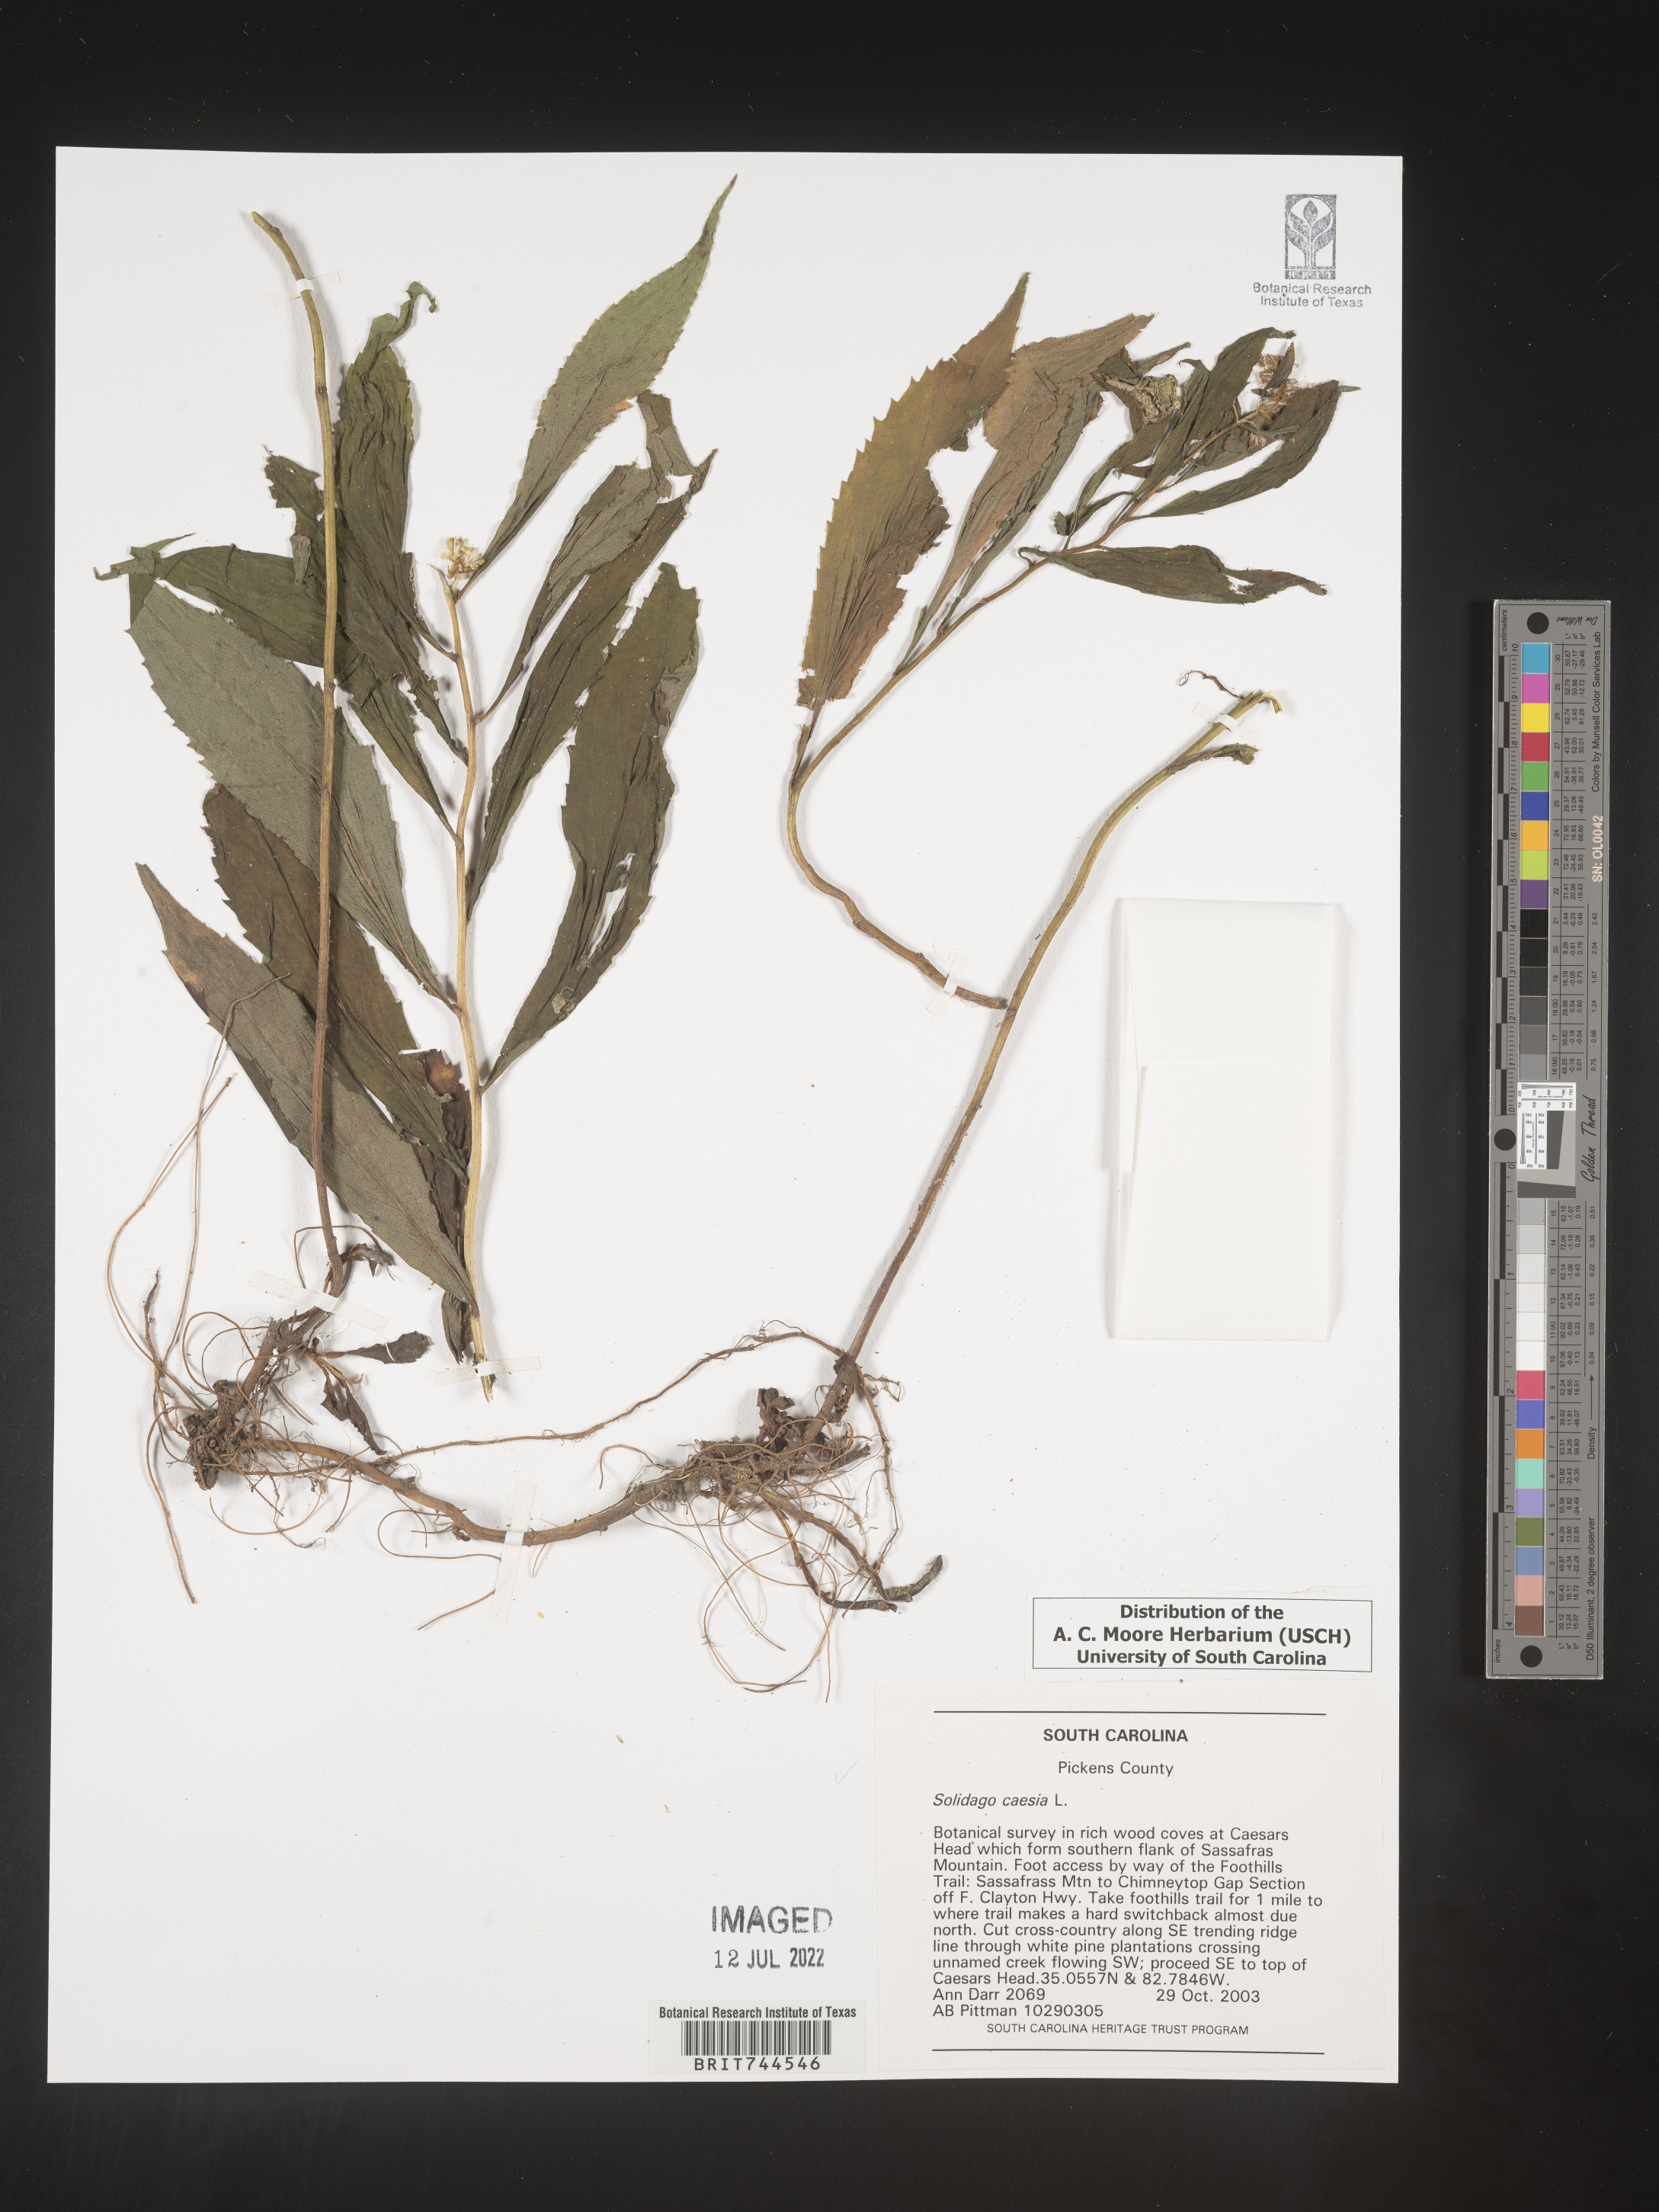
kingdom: Plantae
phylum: Tracheophyta
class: Magnoliopsida
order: Asterales
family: Asteraceae
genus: Solidago
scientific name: Solidago caesia
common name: Woodland goldenrod
